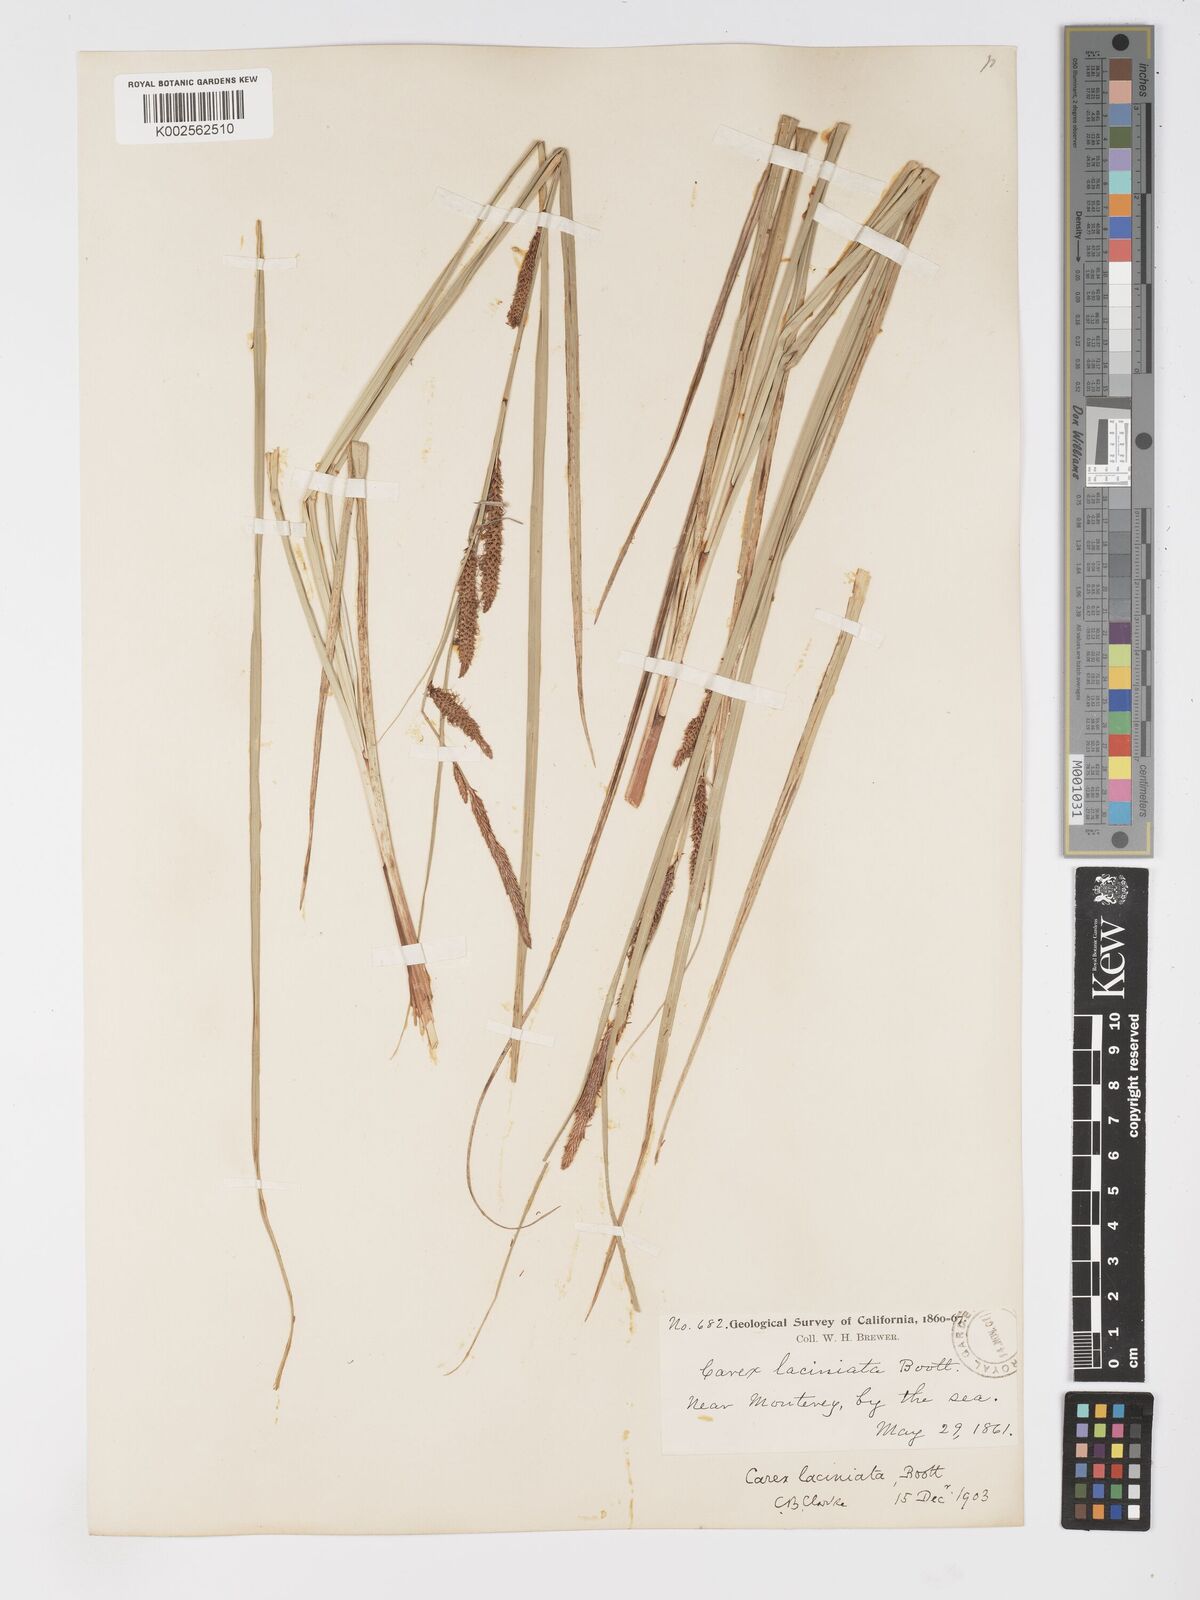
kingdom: Plantae
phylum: Tracheophyta
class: Liliopsida
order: Poales
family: Cyperaceae
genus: Carex
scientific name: Carex barbarae
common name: Santa barbara sedge
